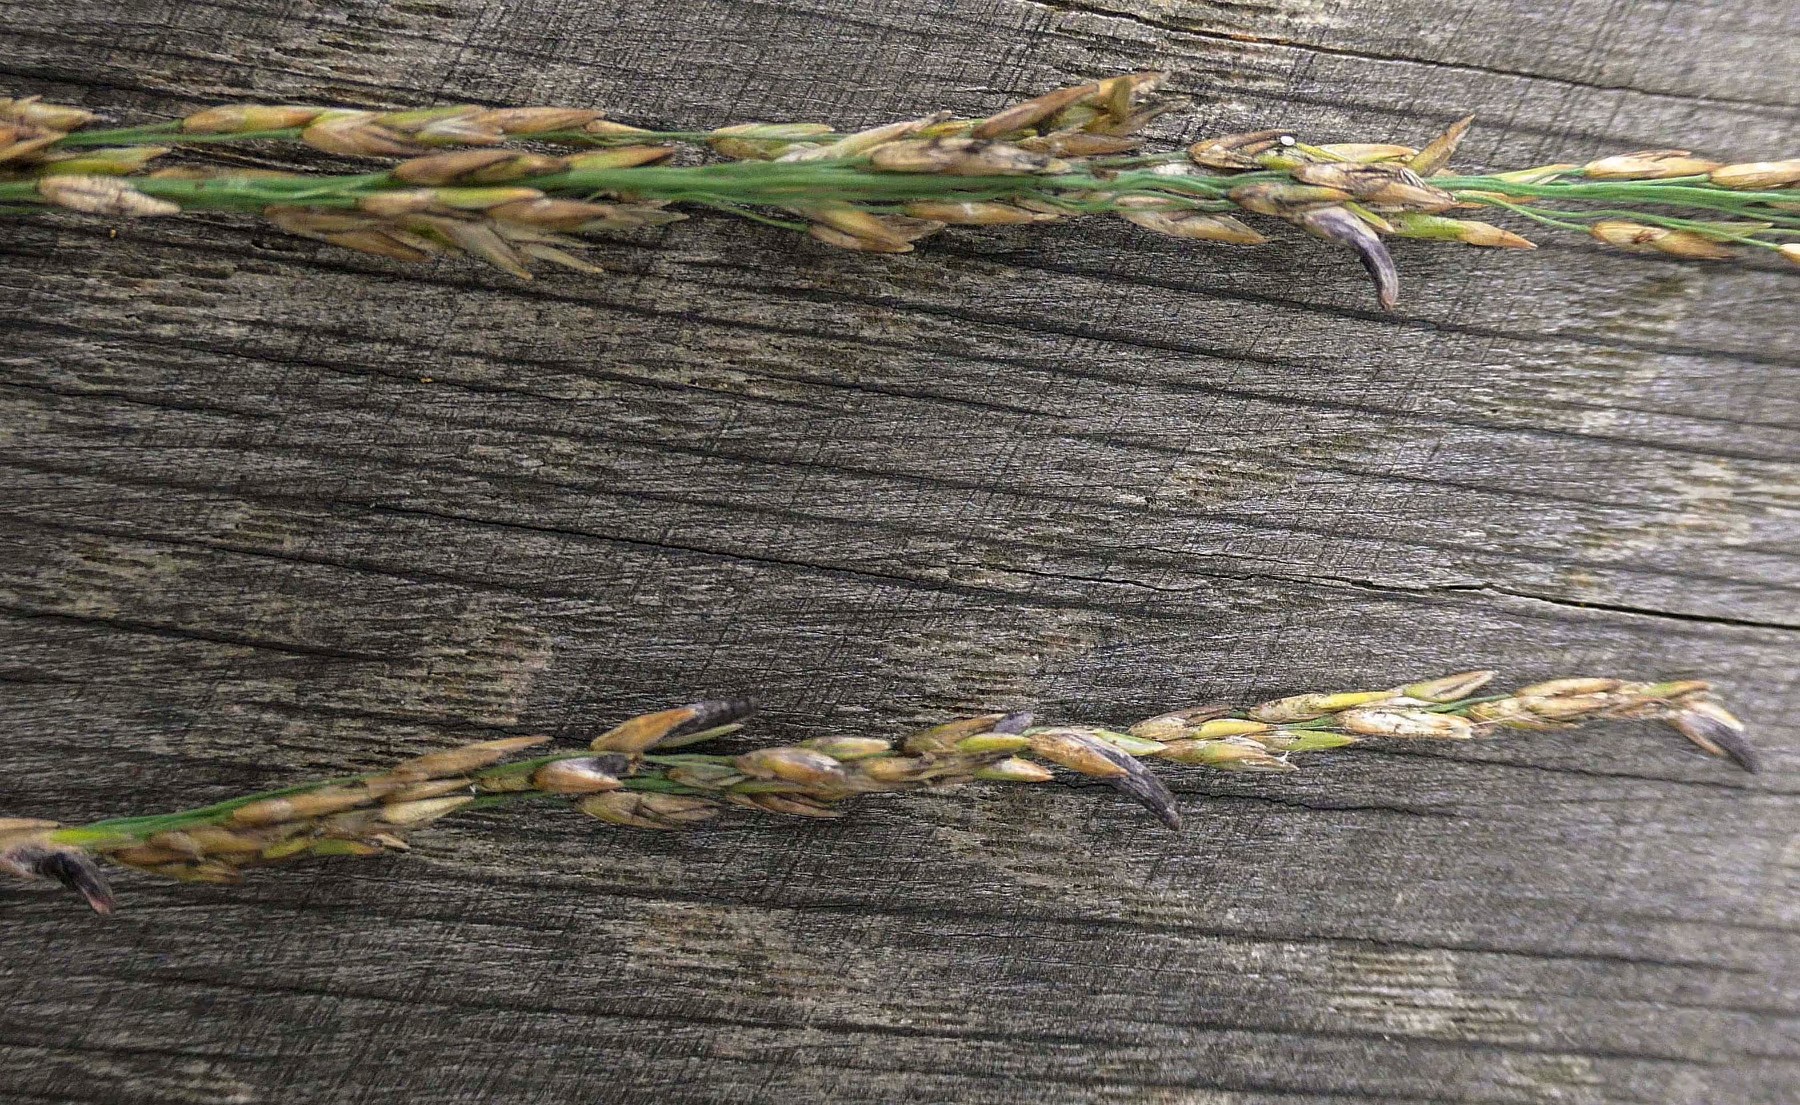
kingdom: Fungi
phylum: Ascomycota
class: Sordariomycetes
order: Hypocreales
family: Clavicipitaceae
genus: Claviceps
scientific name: Claviceps purpurea
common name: almindelig meldrøjer
